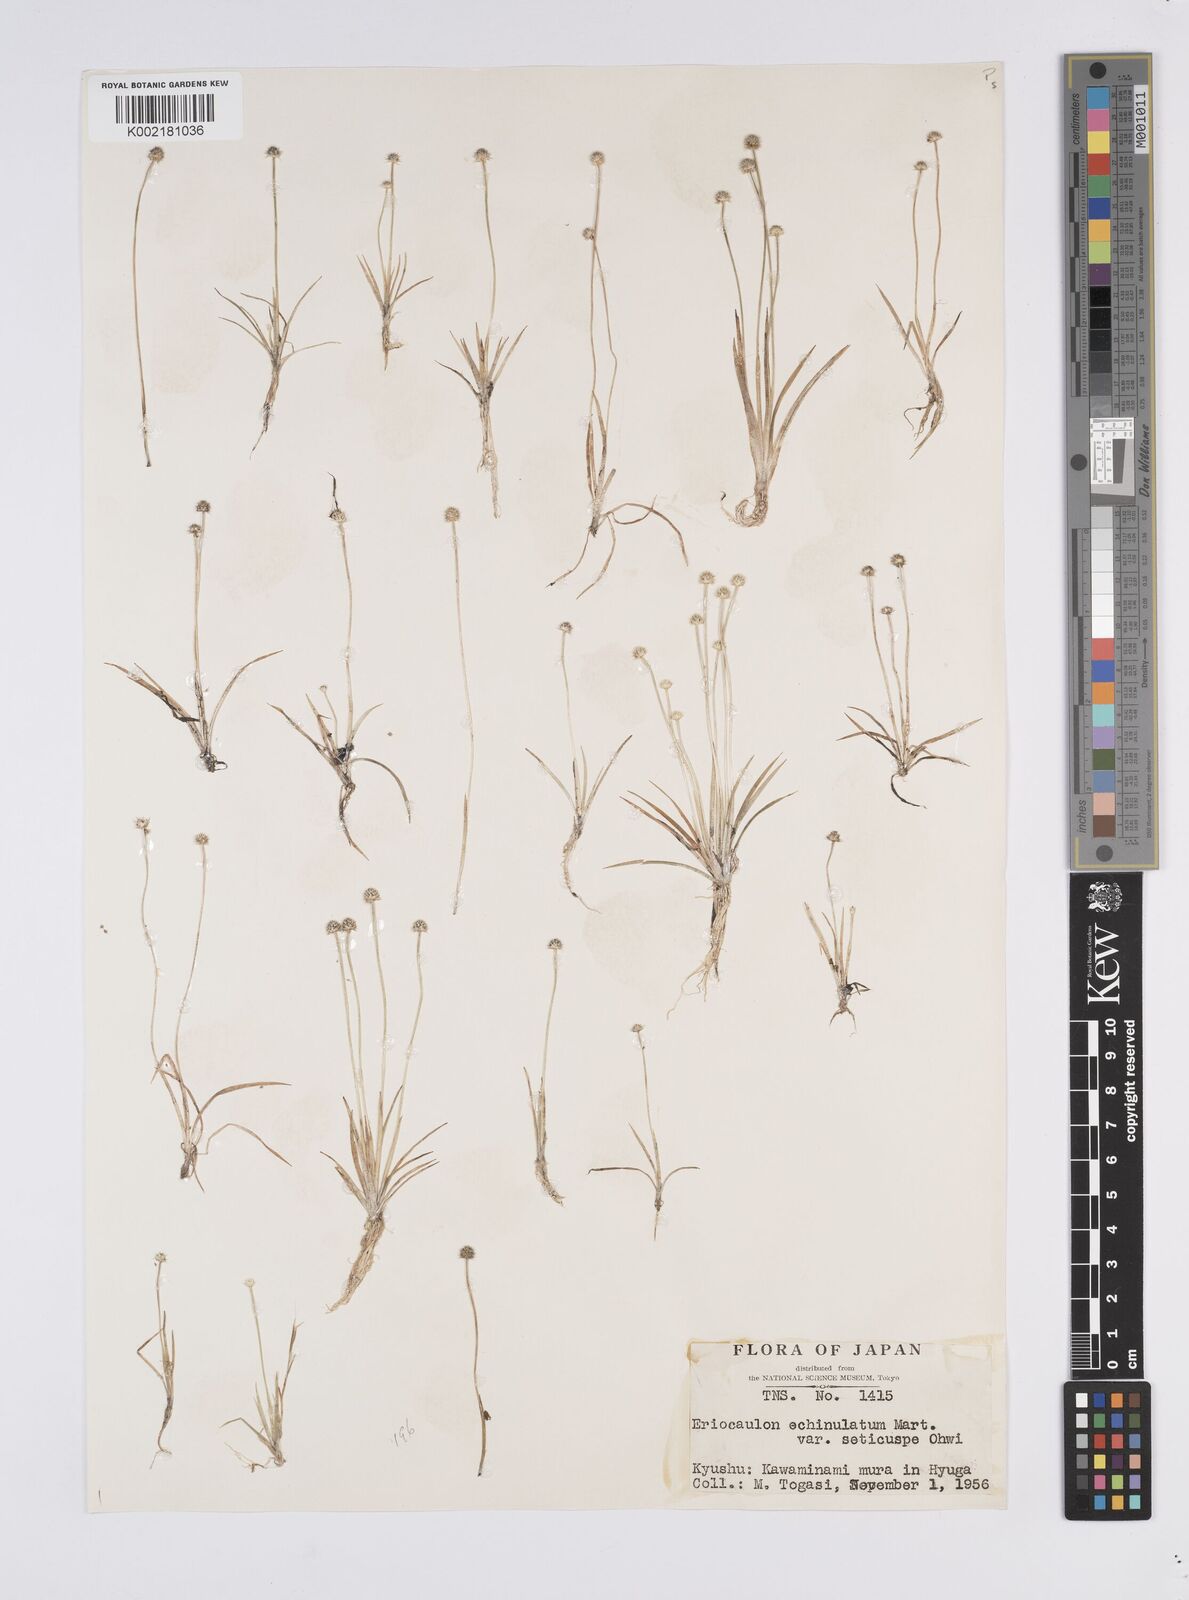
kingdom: Plantae
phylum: Tracheophyta
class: Liliopsida
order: Poales
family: Eriocaulaceae
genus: Eriocaulon
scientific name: Eriocaulon echinulatum
